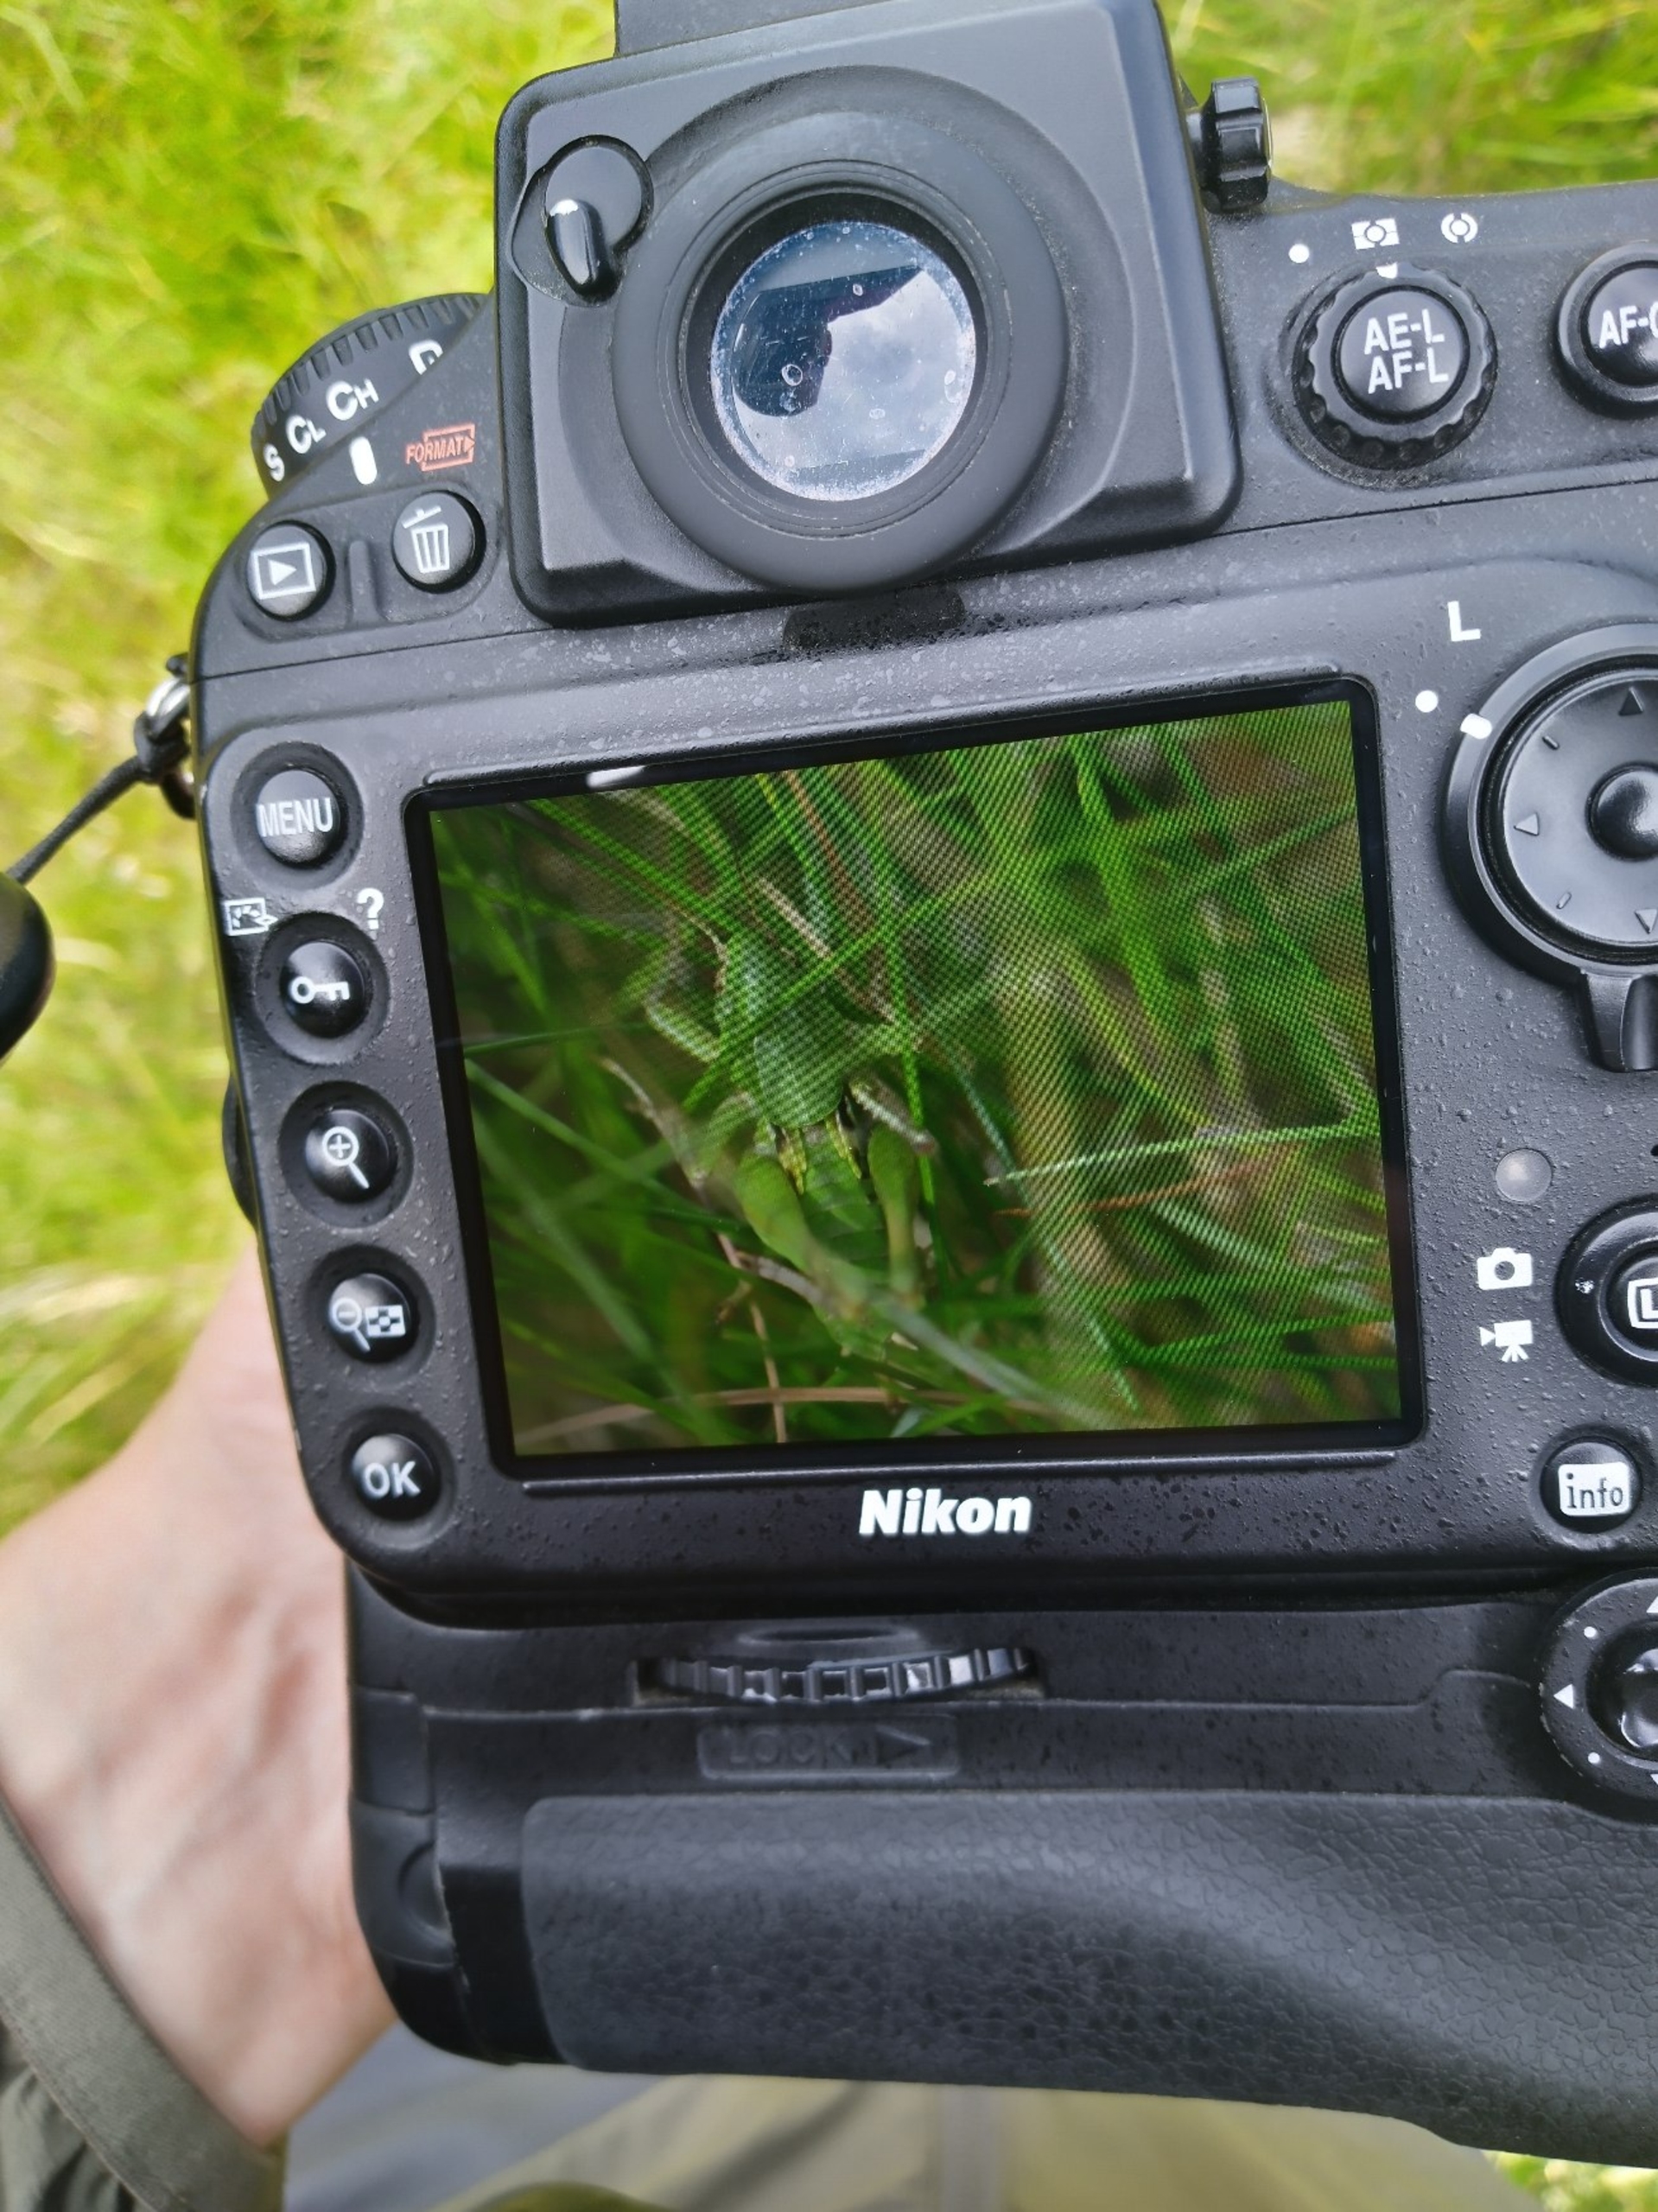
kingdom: Animalia
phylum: Arthropoda
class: Insecta
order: Orthoptera
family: Tettigoniidae
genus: Decticus
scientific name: Decticus verrucivorus
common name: Vortebider
